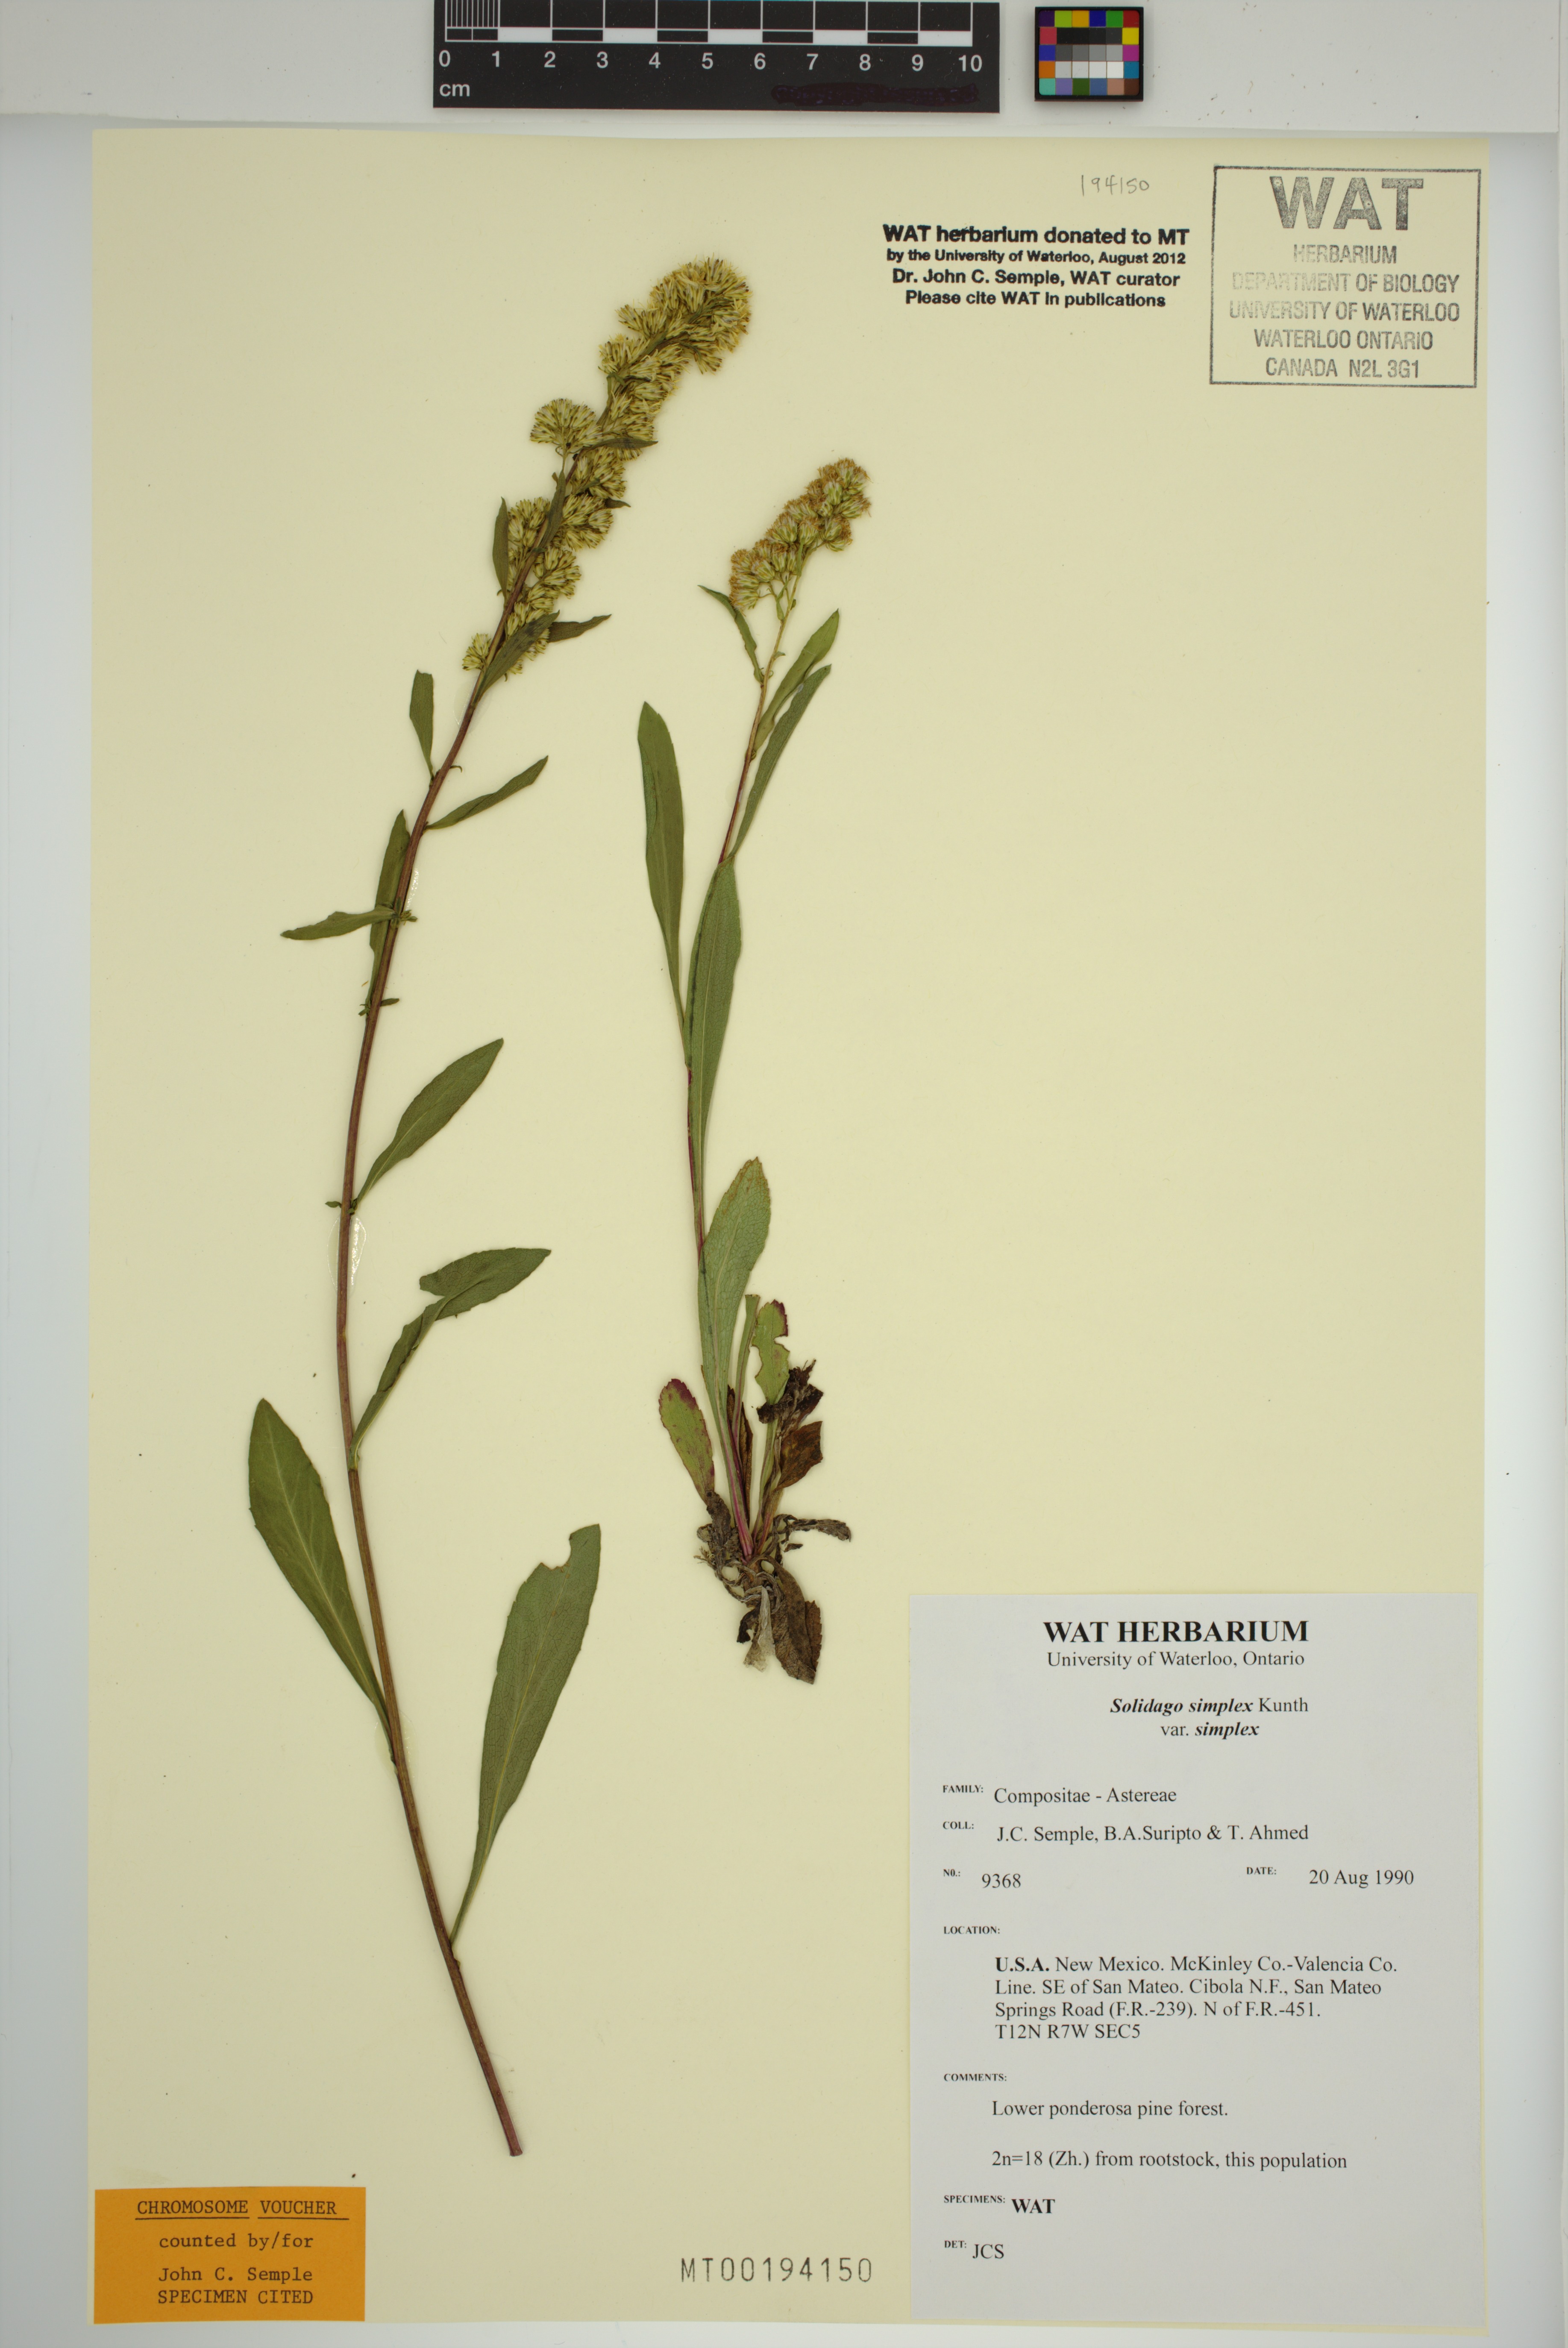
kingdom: Plantae
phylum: Tracheophyta
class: Magnoliopsida
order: Asterales
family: Asteraceae
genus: Solidago
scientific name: Solidago glutinosa
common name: Decumbent goldenrod
